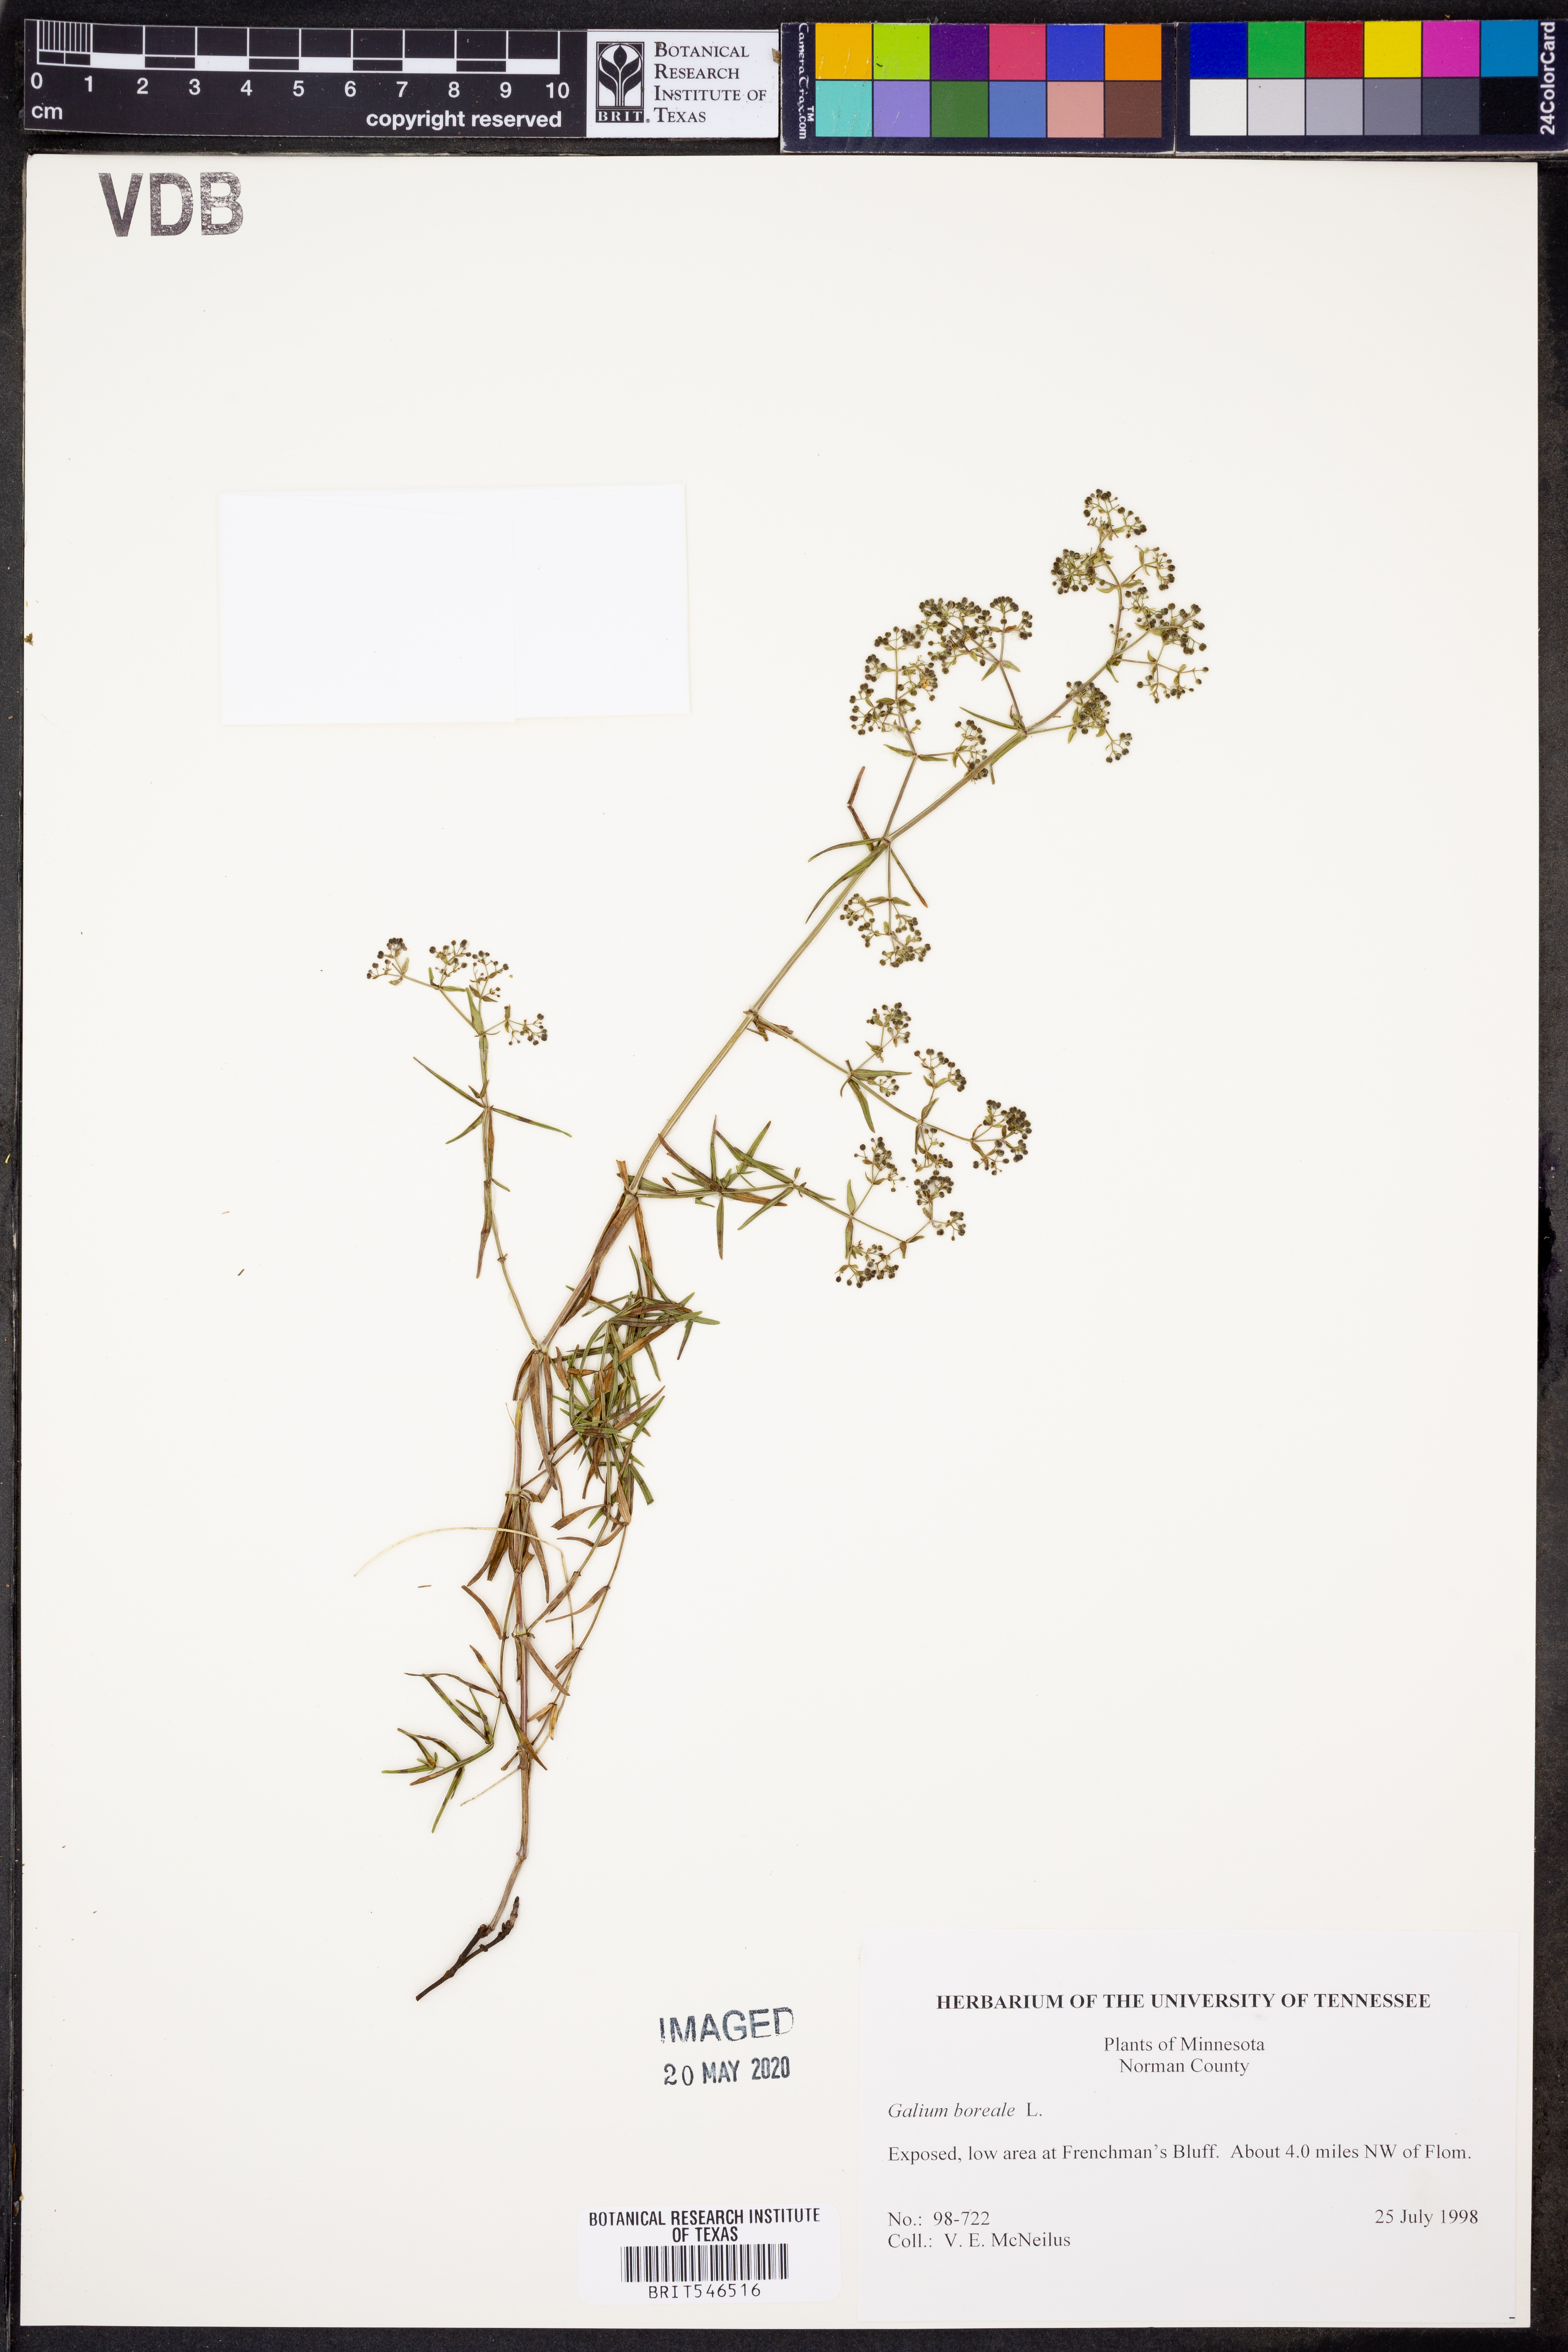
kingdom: Plantae
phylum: Tracheophyta
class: Magnoliopsida
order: Gentianales
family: Rubiaceae
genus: Galium
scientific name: Galium boreale
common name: Northern bedstraw
